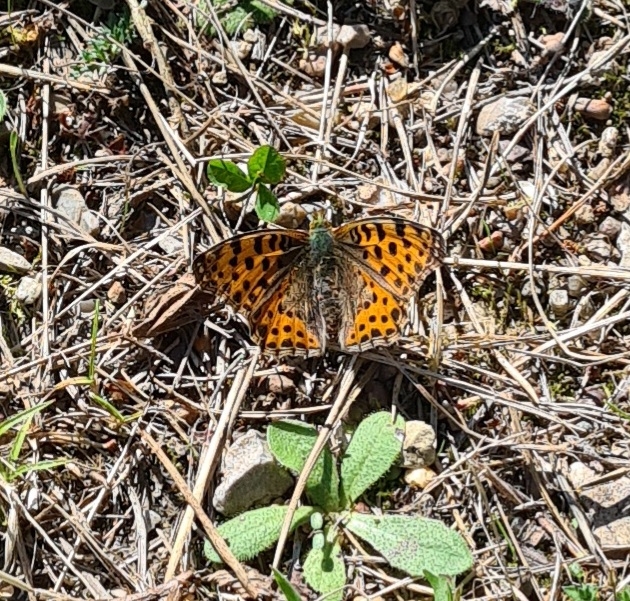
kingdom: Animalia
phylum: Arthropoda
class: Insecta
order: Lepidoptera
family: Nymphalidae
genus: Issoria
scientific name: Issoria lathonia
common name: Storplettet perlemorsommerfugl
